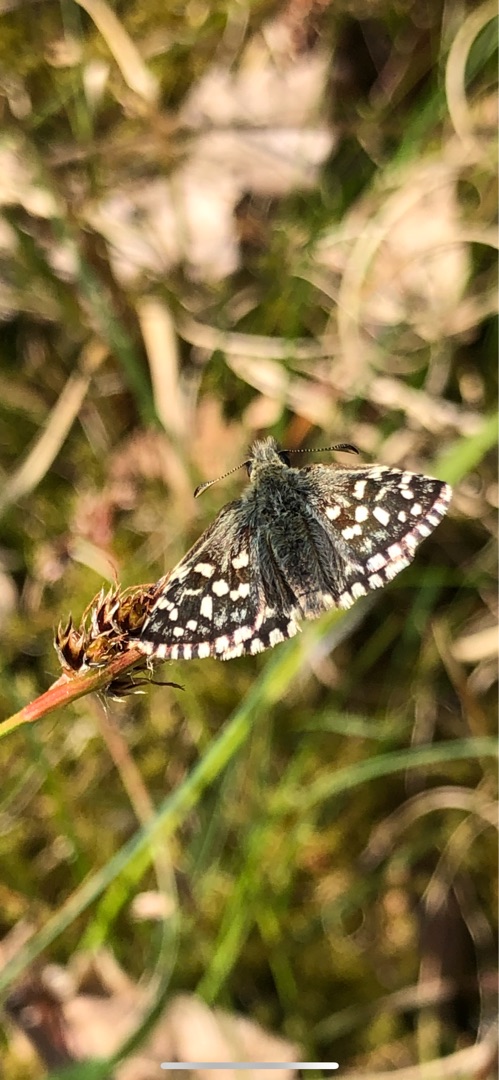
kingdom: Animalia
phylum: Arthropoda
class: Insecta
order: Lepidoptera
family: Hesperiidae
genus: Pyrgus
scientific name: Pyrgus malvae
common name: Spættet bredpande
